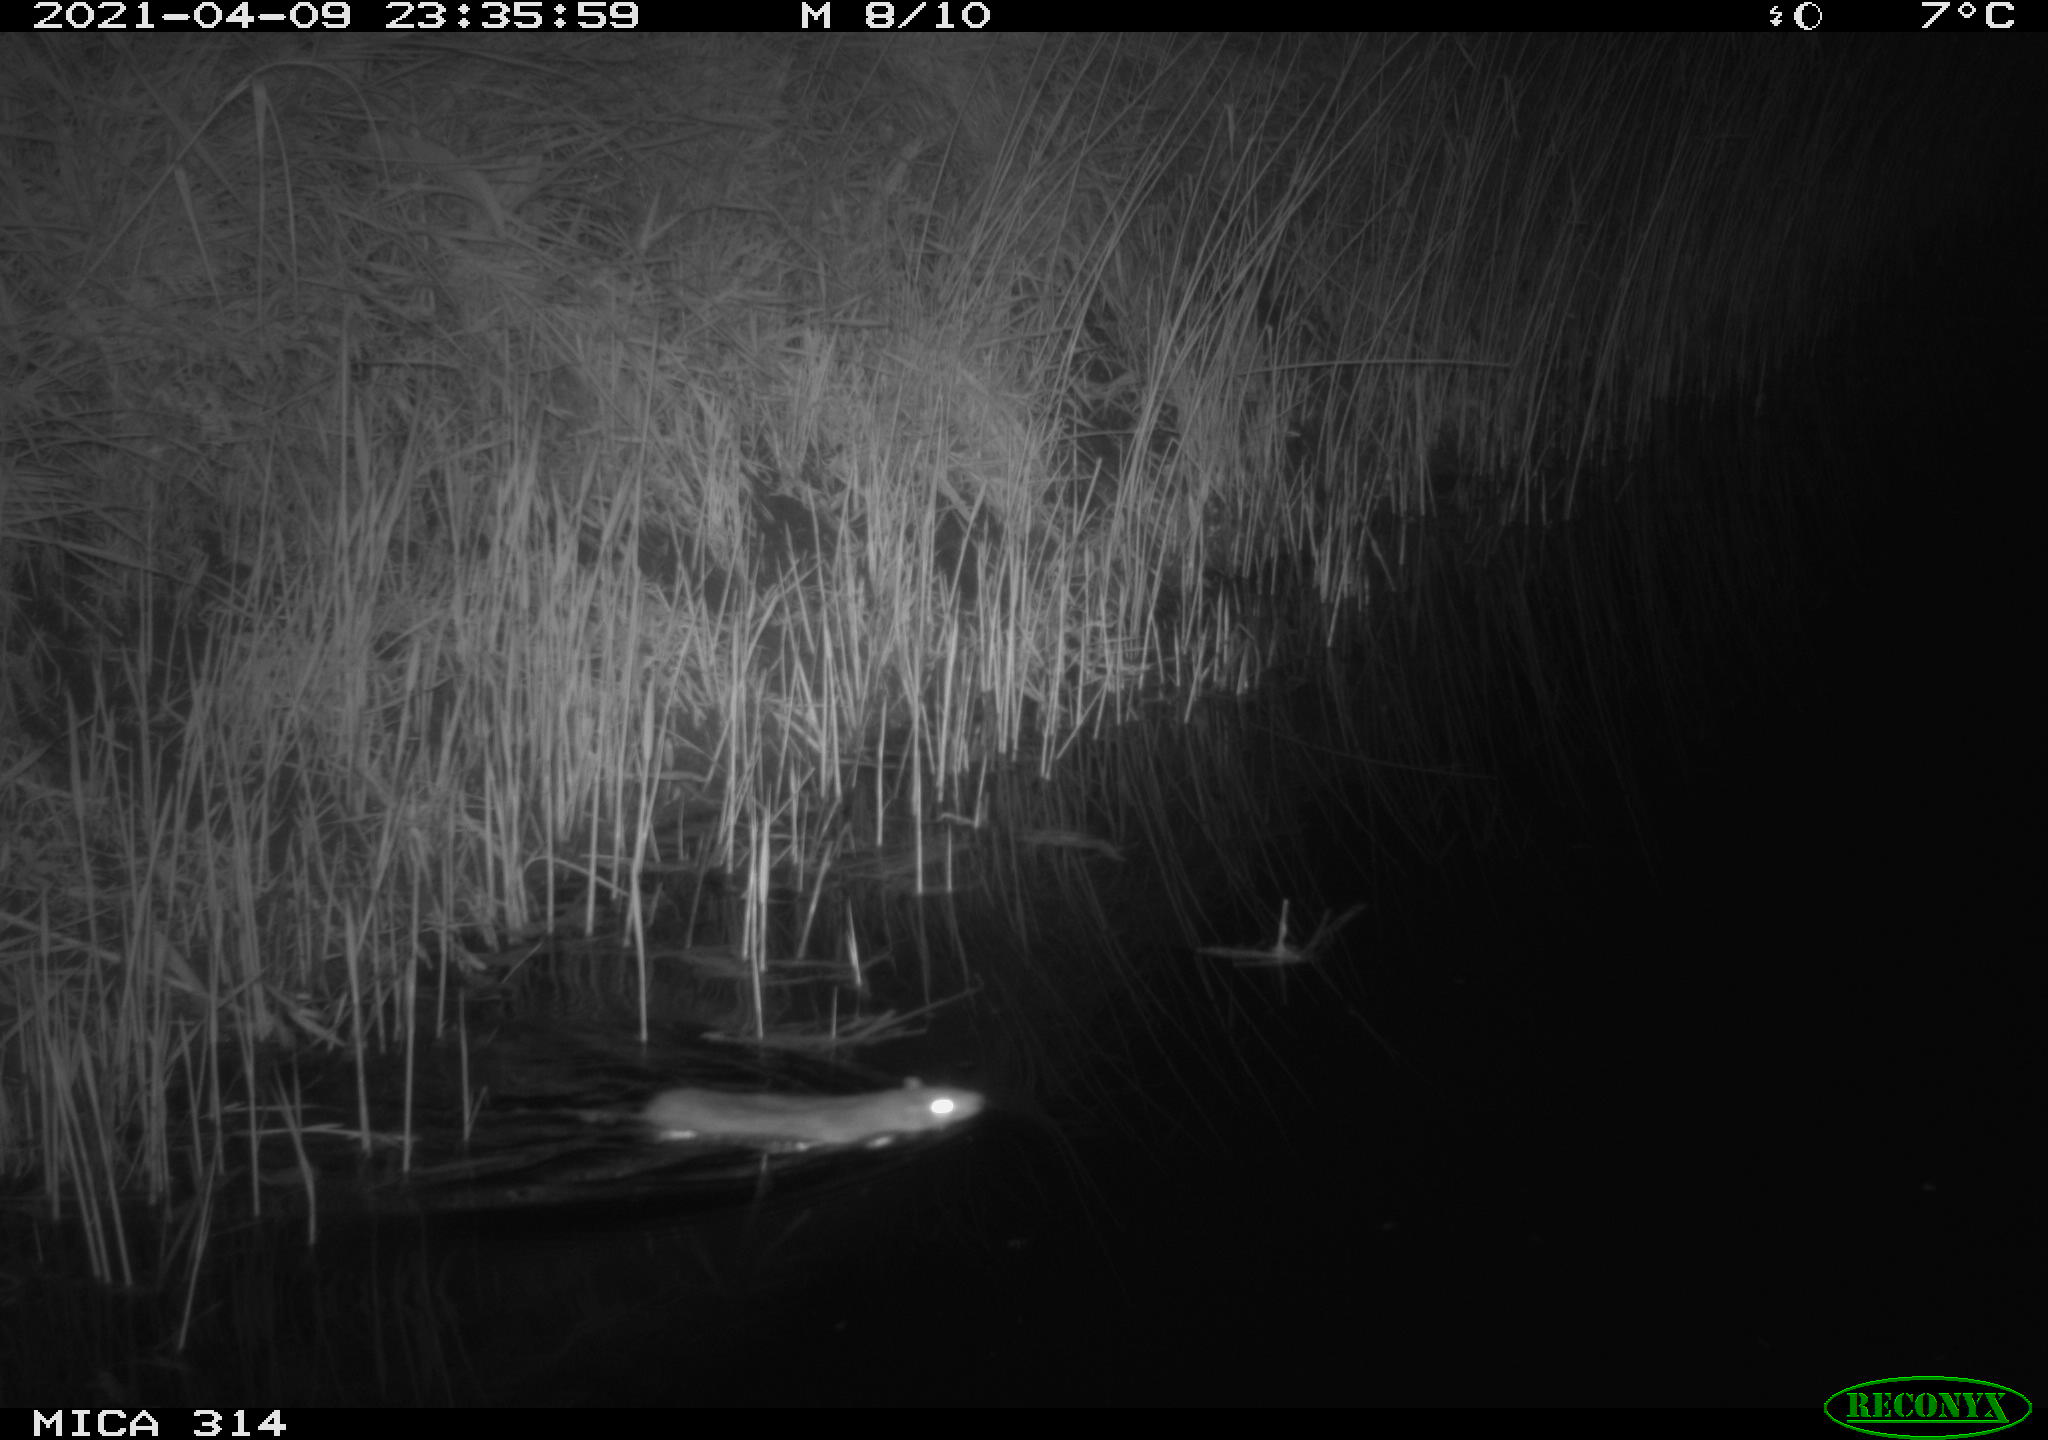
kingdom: Animalia
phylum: Chordata
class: Mammalia
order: Rodentia
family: Muridae
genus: Rattus
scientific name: Rattus norvegicus
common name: Brown rat
